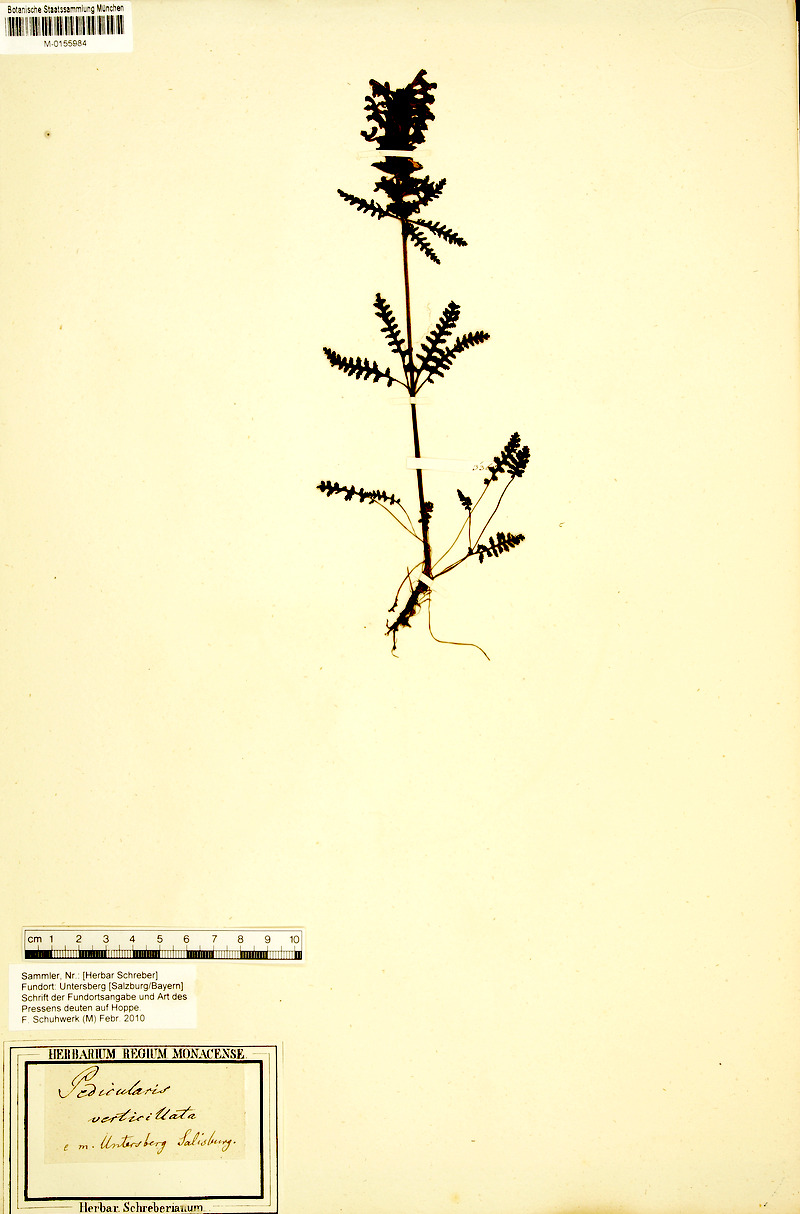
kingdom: Plantae
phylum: Tracheophyta
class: Magnoliopsida
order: Lamiales
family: Orobanchaceae
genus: Pedicularis
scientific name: Pedicularis verticillata
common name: Whorled lousewort
